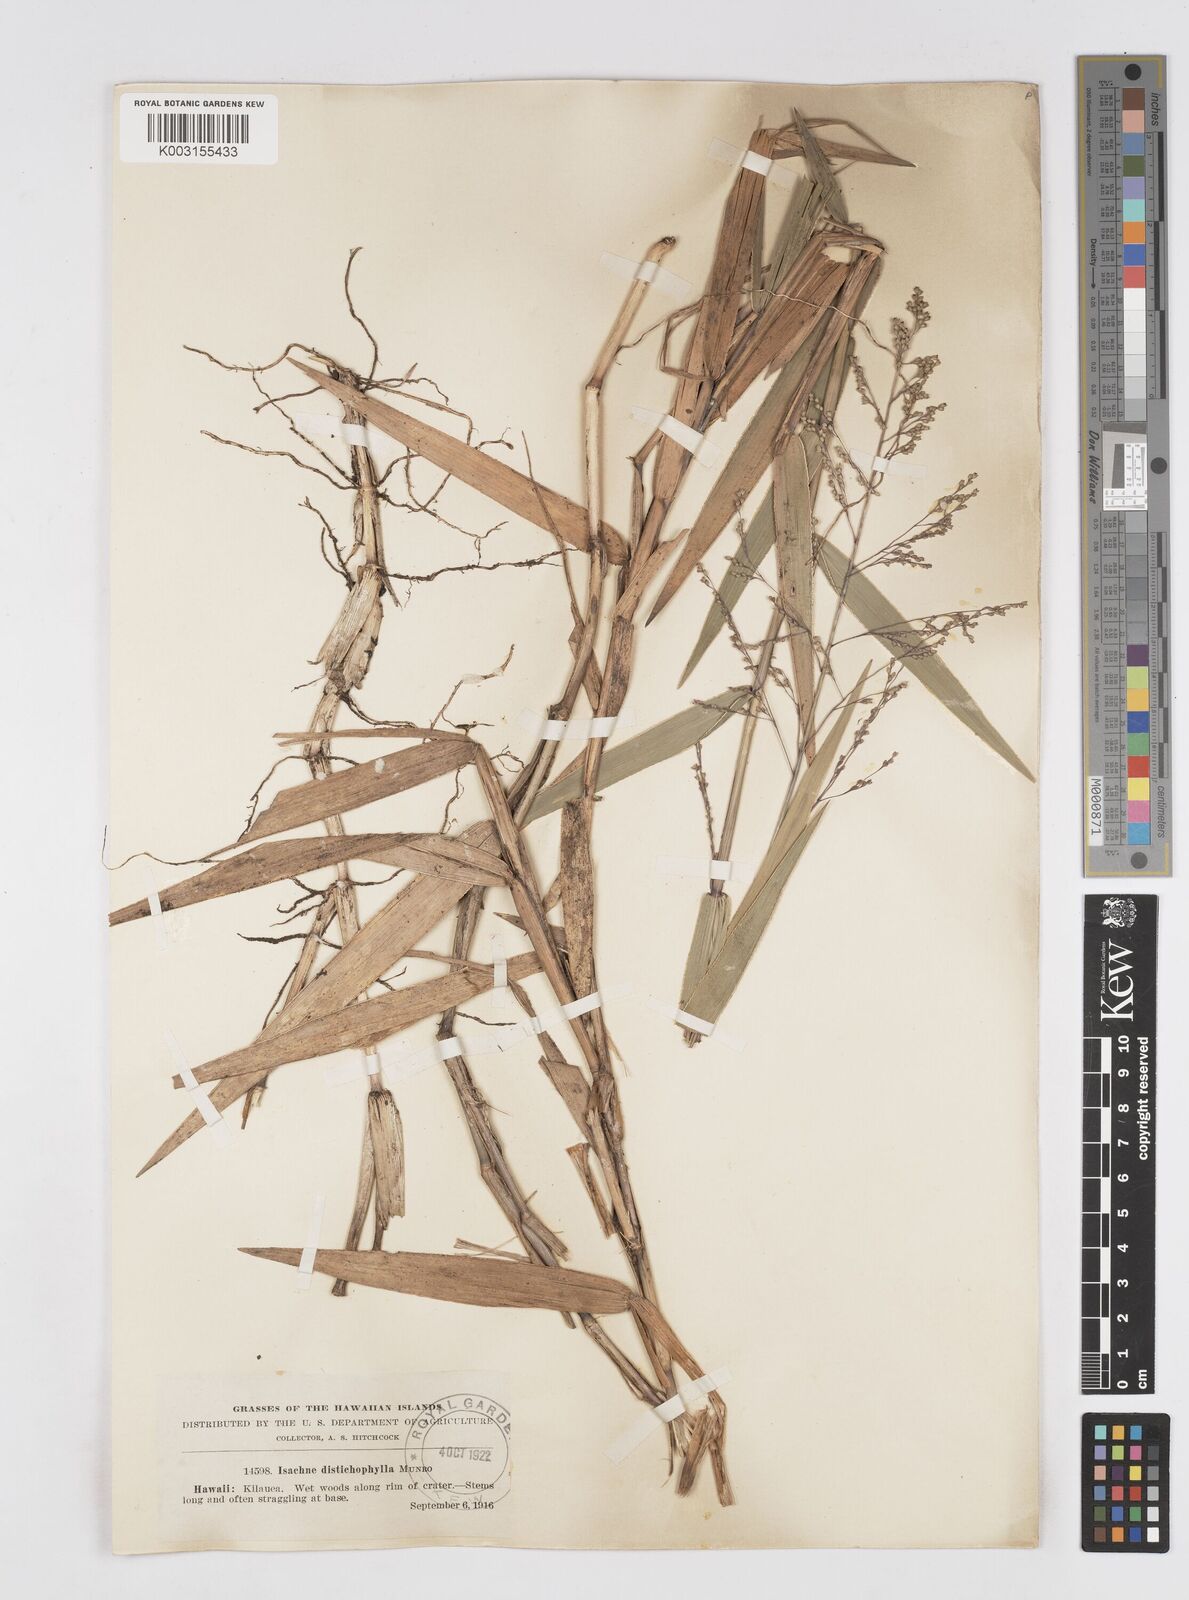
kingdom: Plantae
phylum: Tracheophyta
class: Liliopsida
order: Poales
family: Poaceae
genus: Isachne
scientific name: Isachne distichophylla
